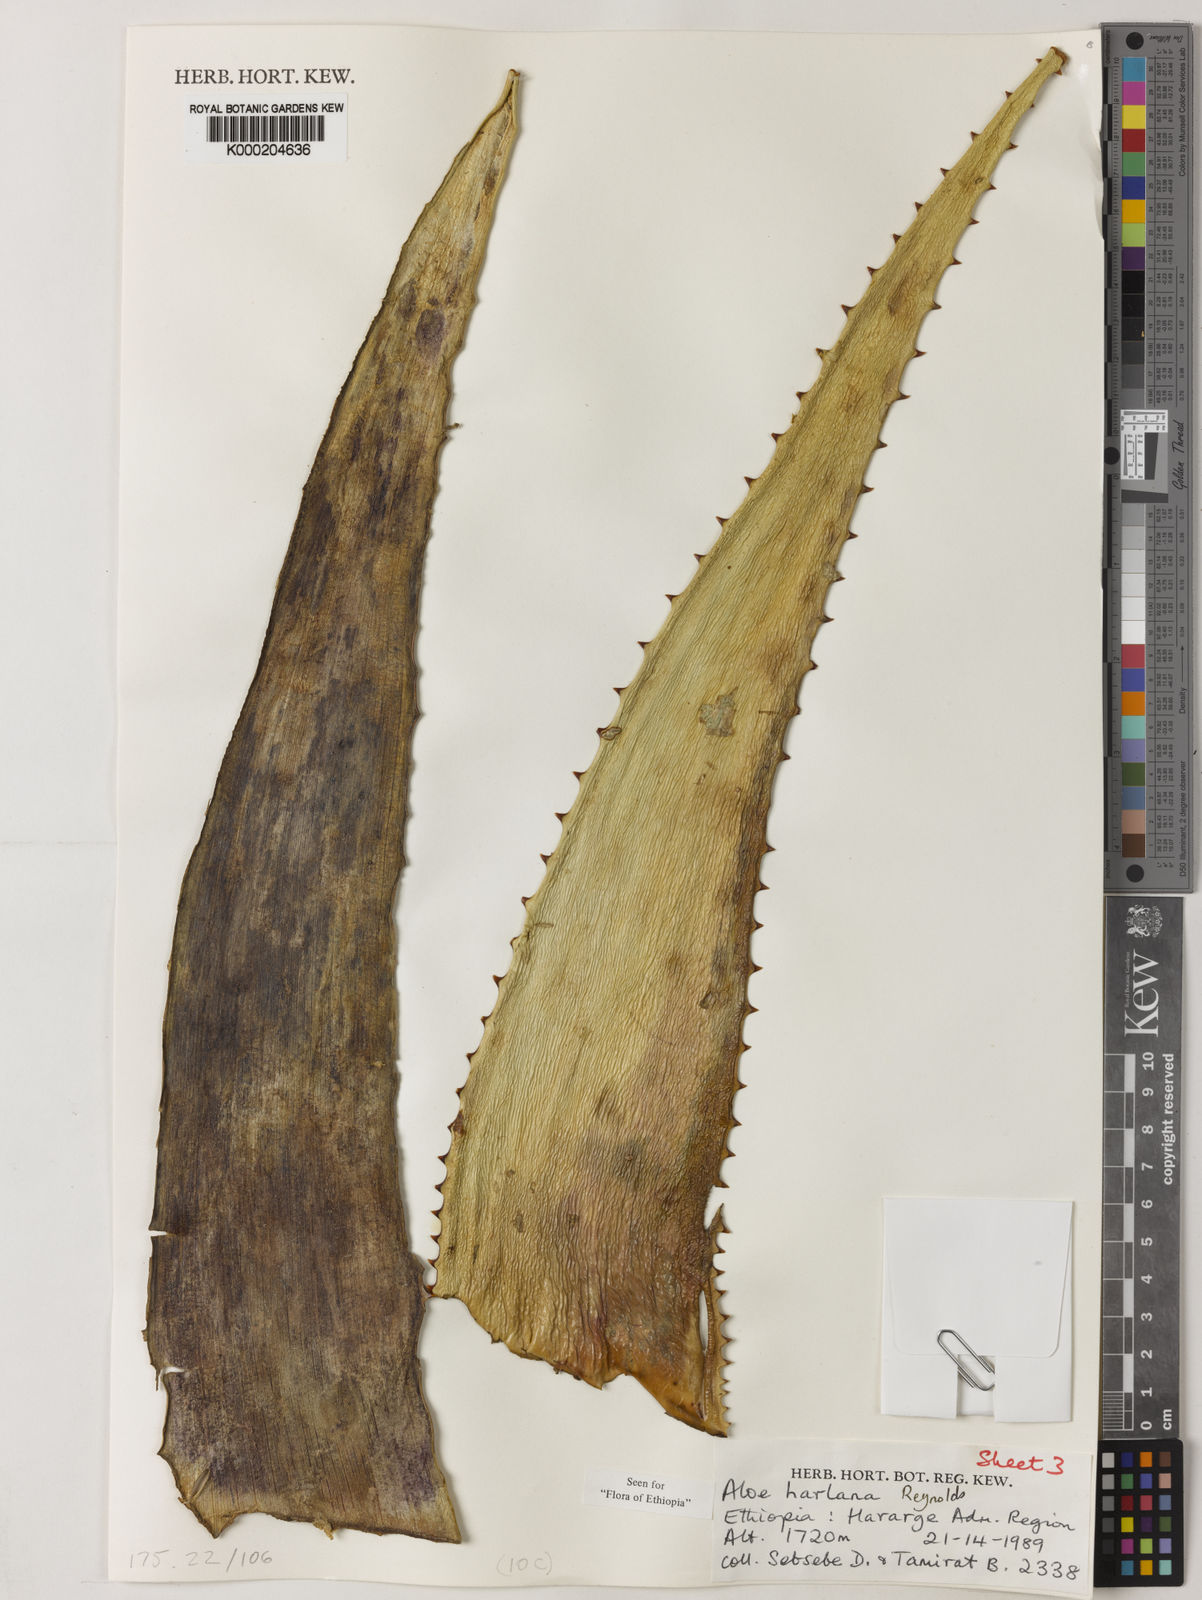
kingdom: Plantae
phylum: Tracheophyta
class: Liliopsida
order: Asparagales
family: Asphodelaceae
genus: Aloe
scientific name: Aloe harlana
